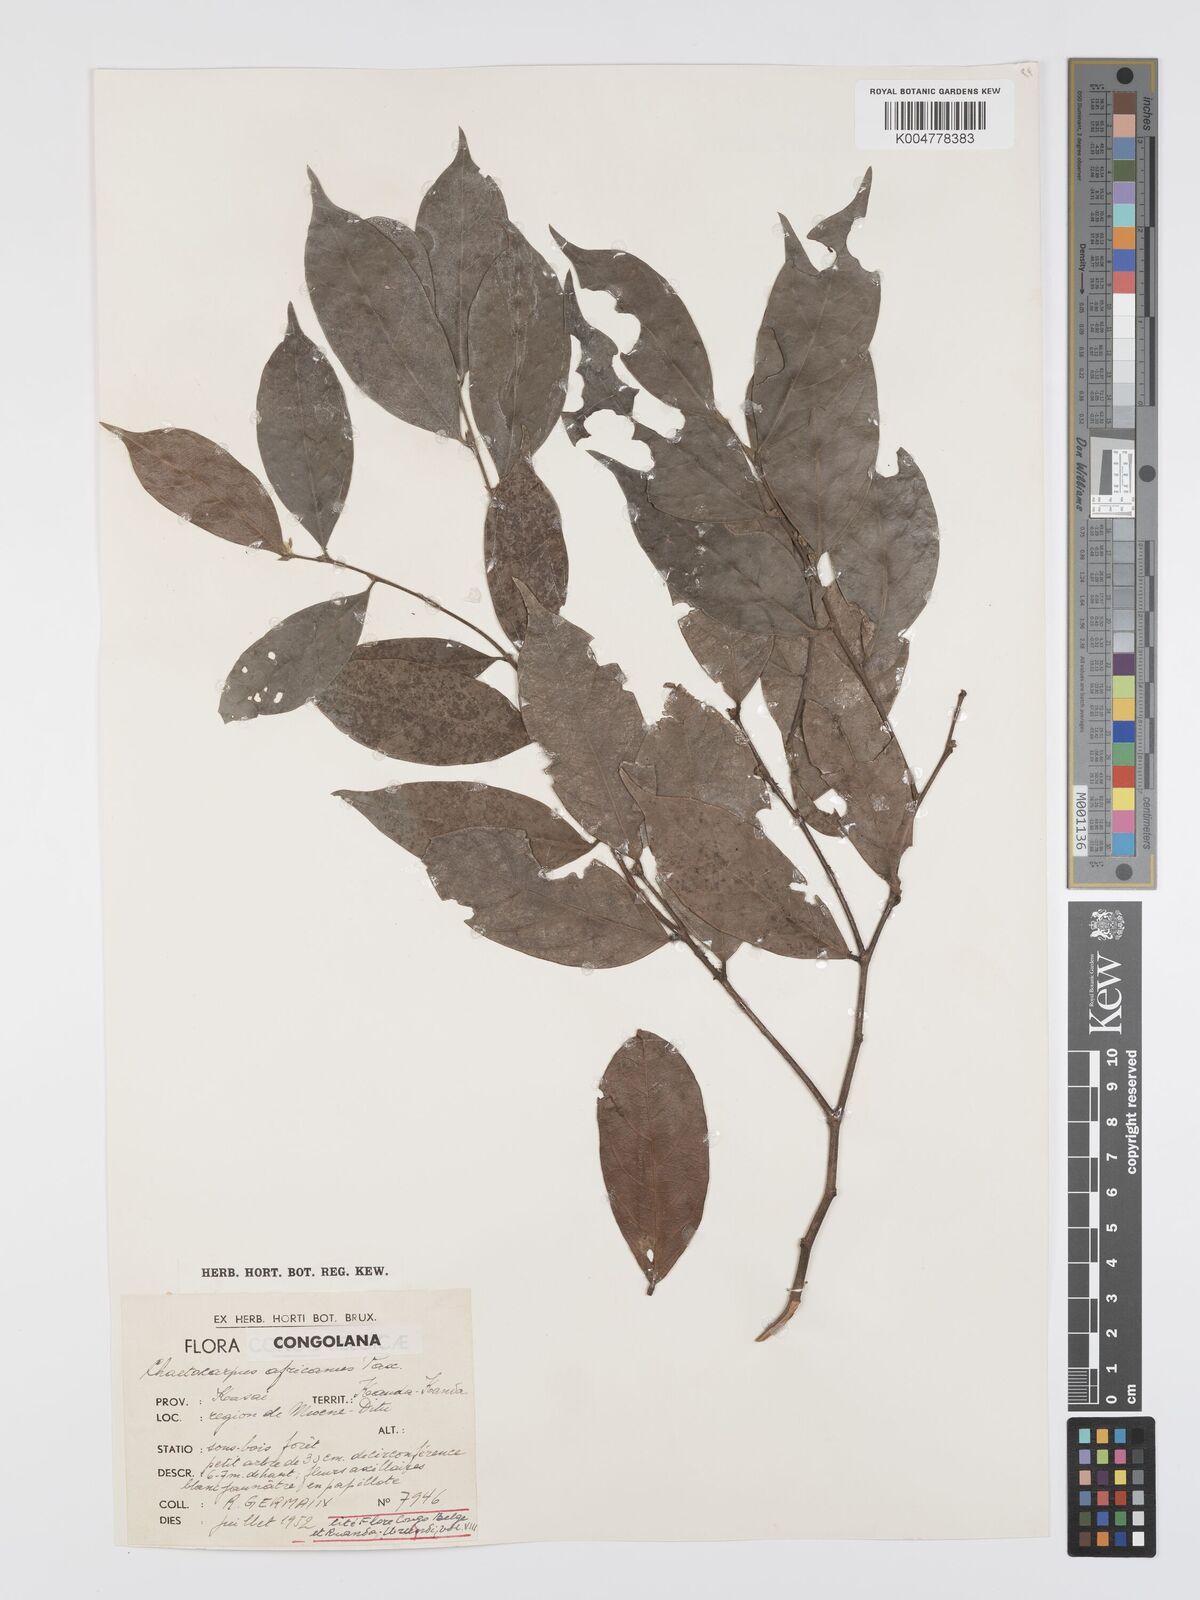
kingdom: Plantae
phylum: Tracheophyta
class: Magnoliopsida
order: Malpighiales
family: Peraceae
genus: Chaetocarpus
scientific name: Chaetocarpus africanus
